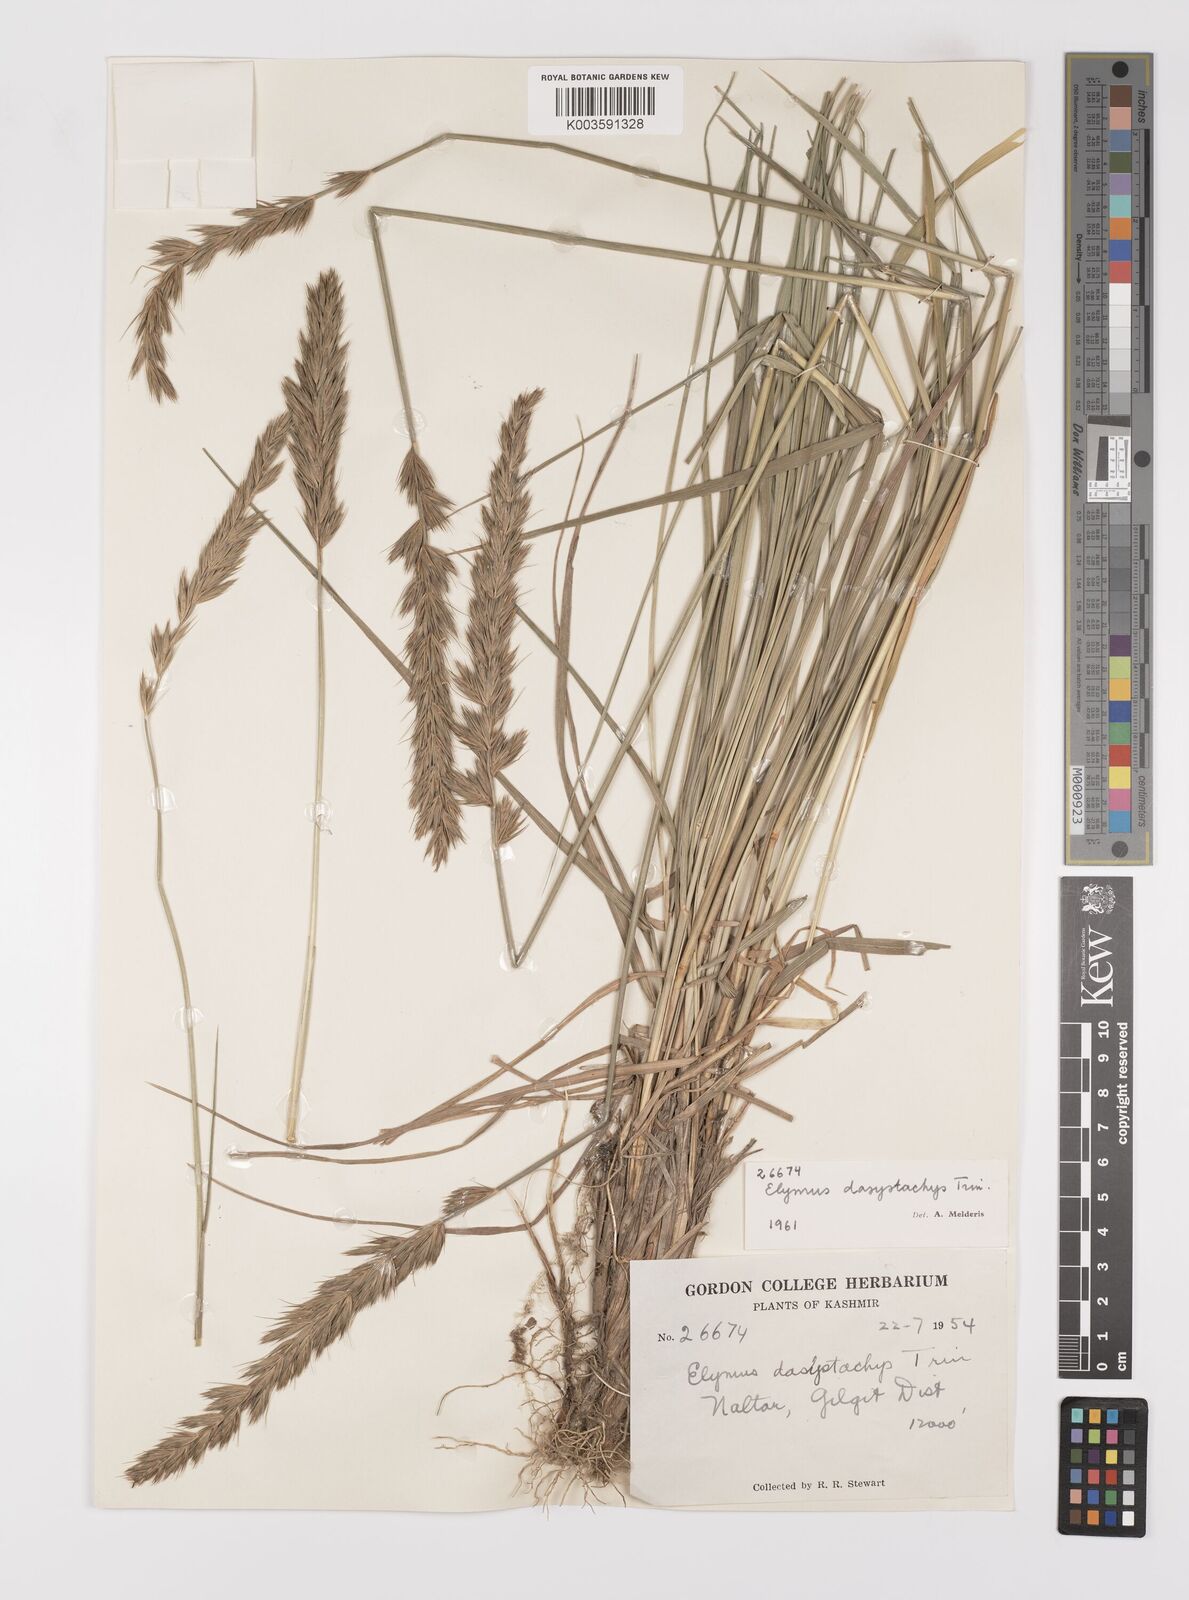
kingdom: Plantae
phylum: Tracheophyta
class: Liliopsida
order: Poales
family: Poaceae
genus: Leymus
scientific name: Leymus secalinus
